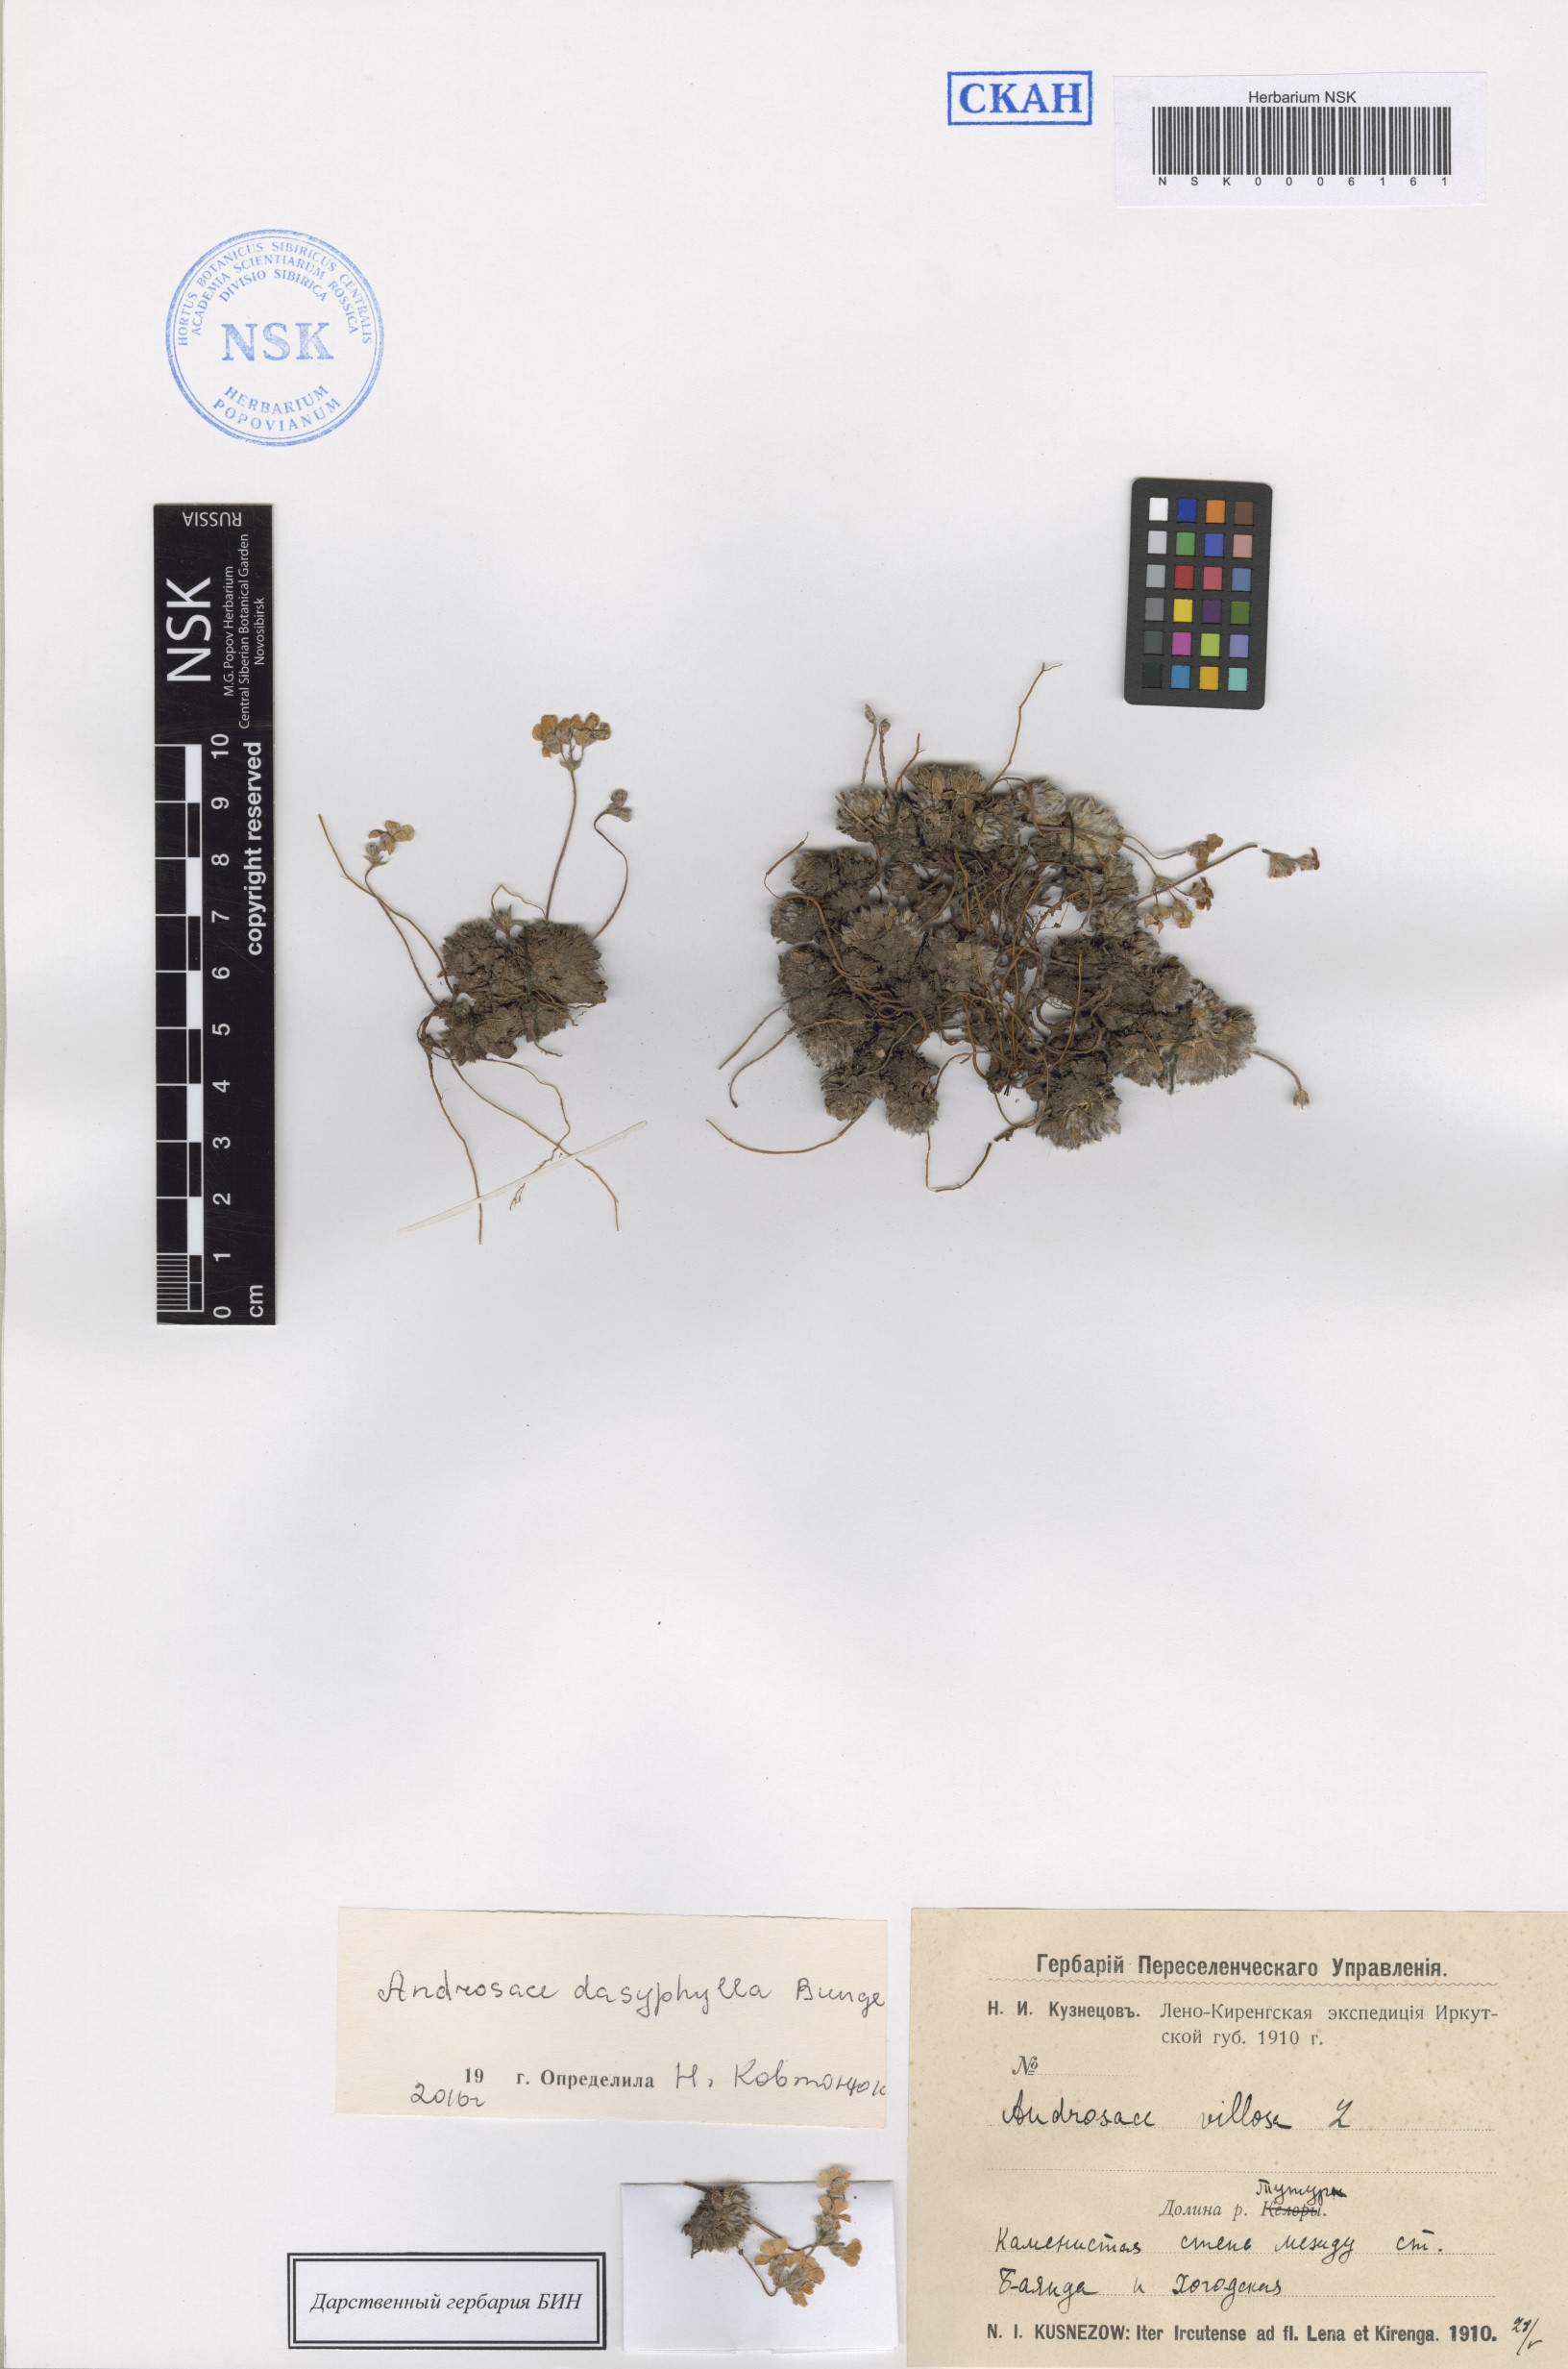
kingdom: Plantae
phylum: Tracheophyta
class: Magnoliopsida
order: Ericales
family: Primulaceae
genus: Androsace
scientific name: Androsace dasyphylla
